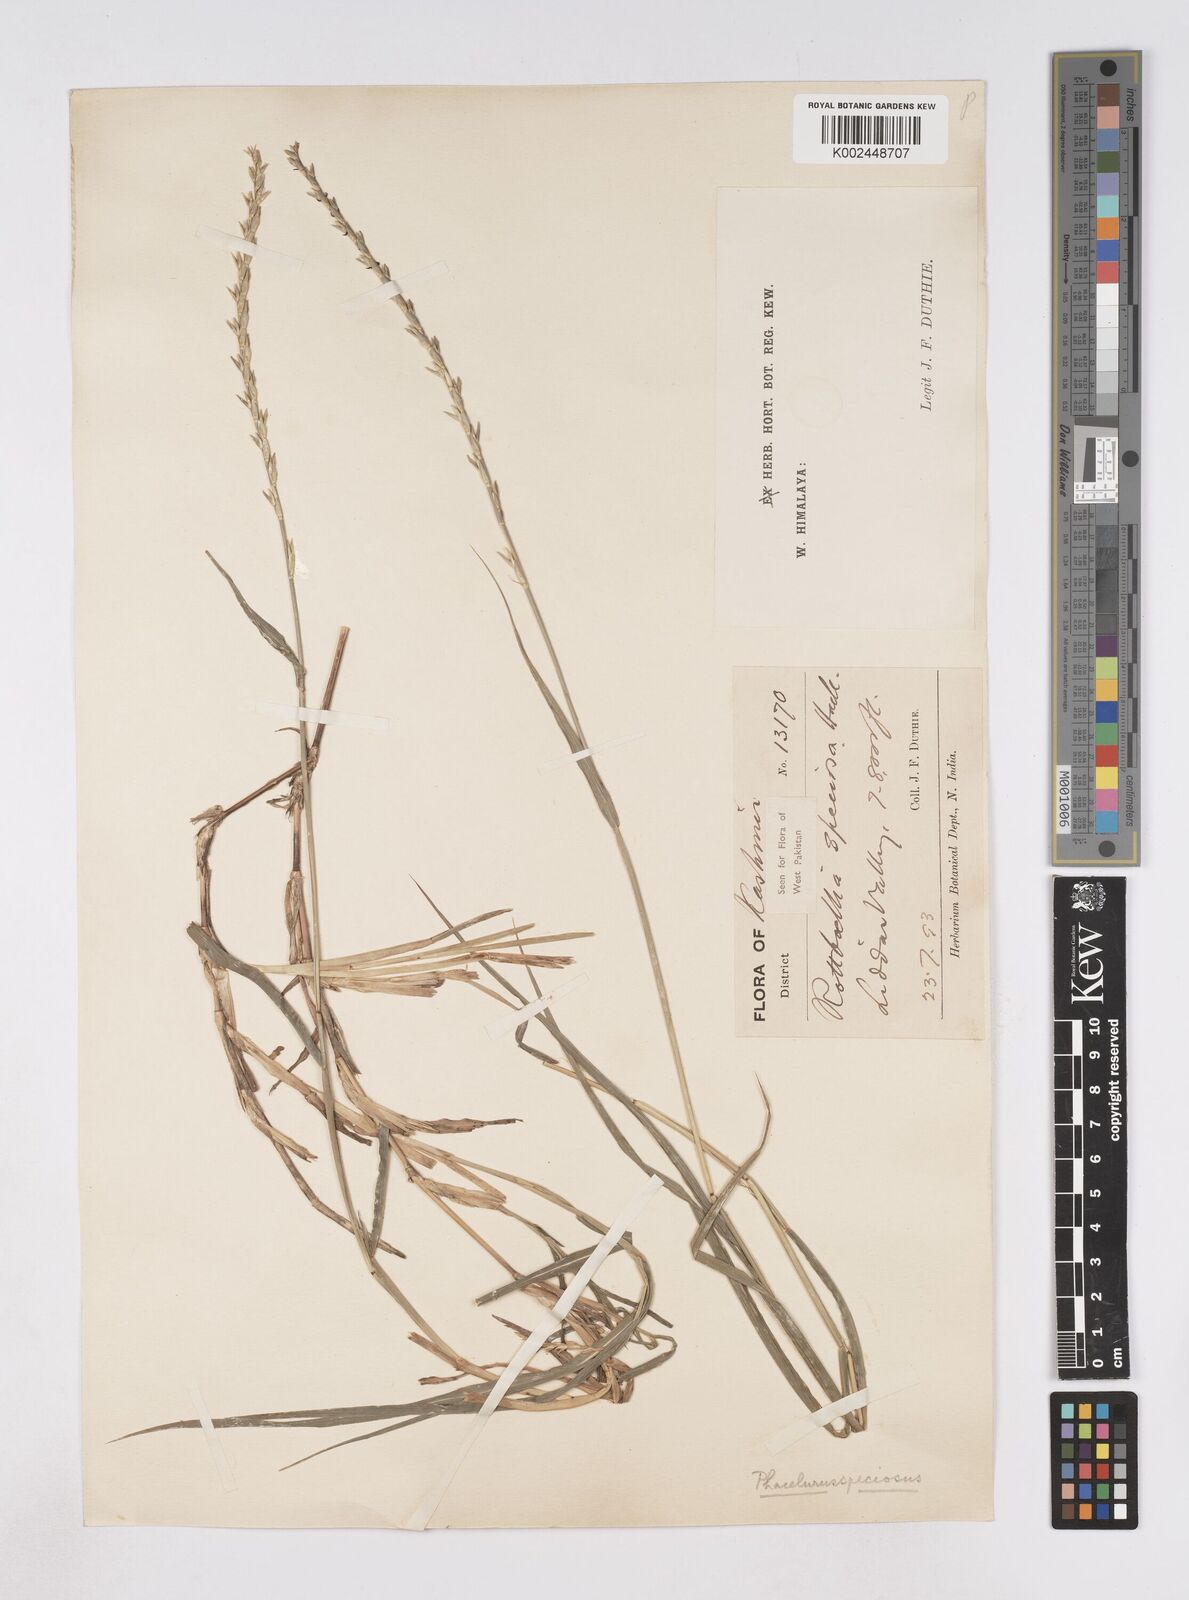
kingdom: Plantae
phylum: Tracheophyta
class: Liliopsida
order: Poales
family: Poaceae
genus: Phacelurus
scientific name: Phacelurus speciosus
